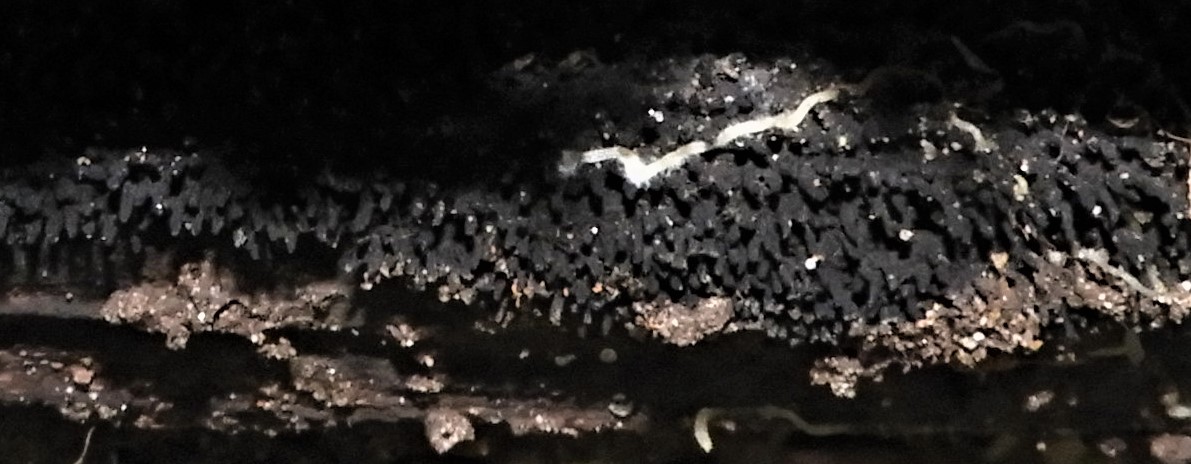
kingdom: Fungi
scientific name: Fungi
